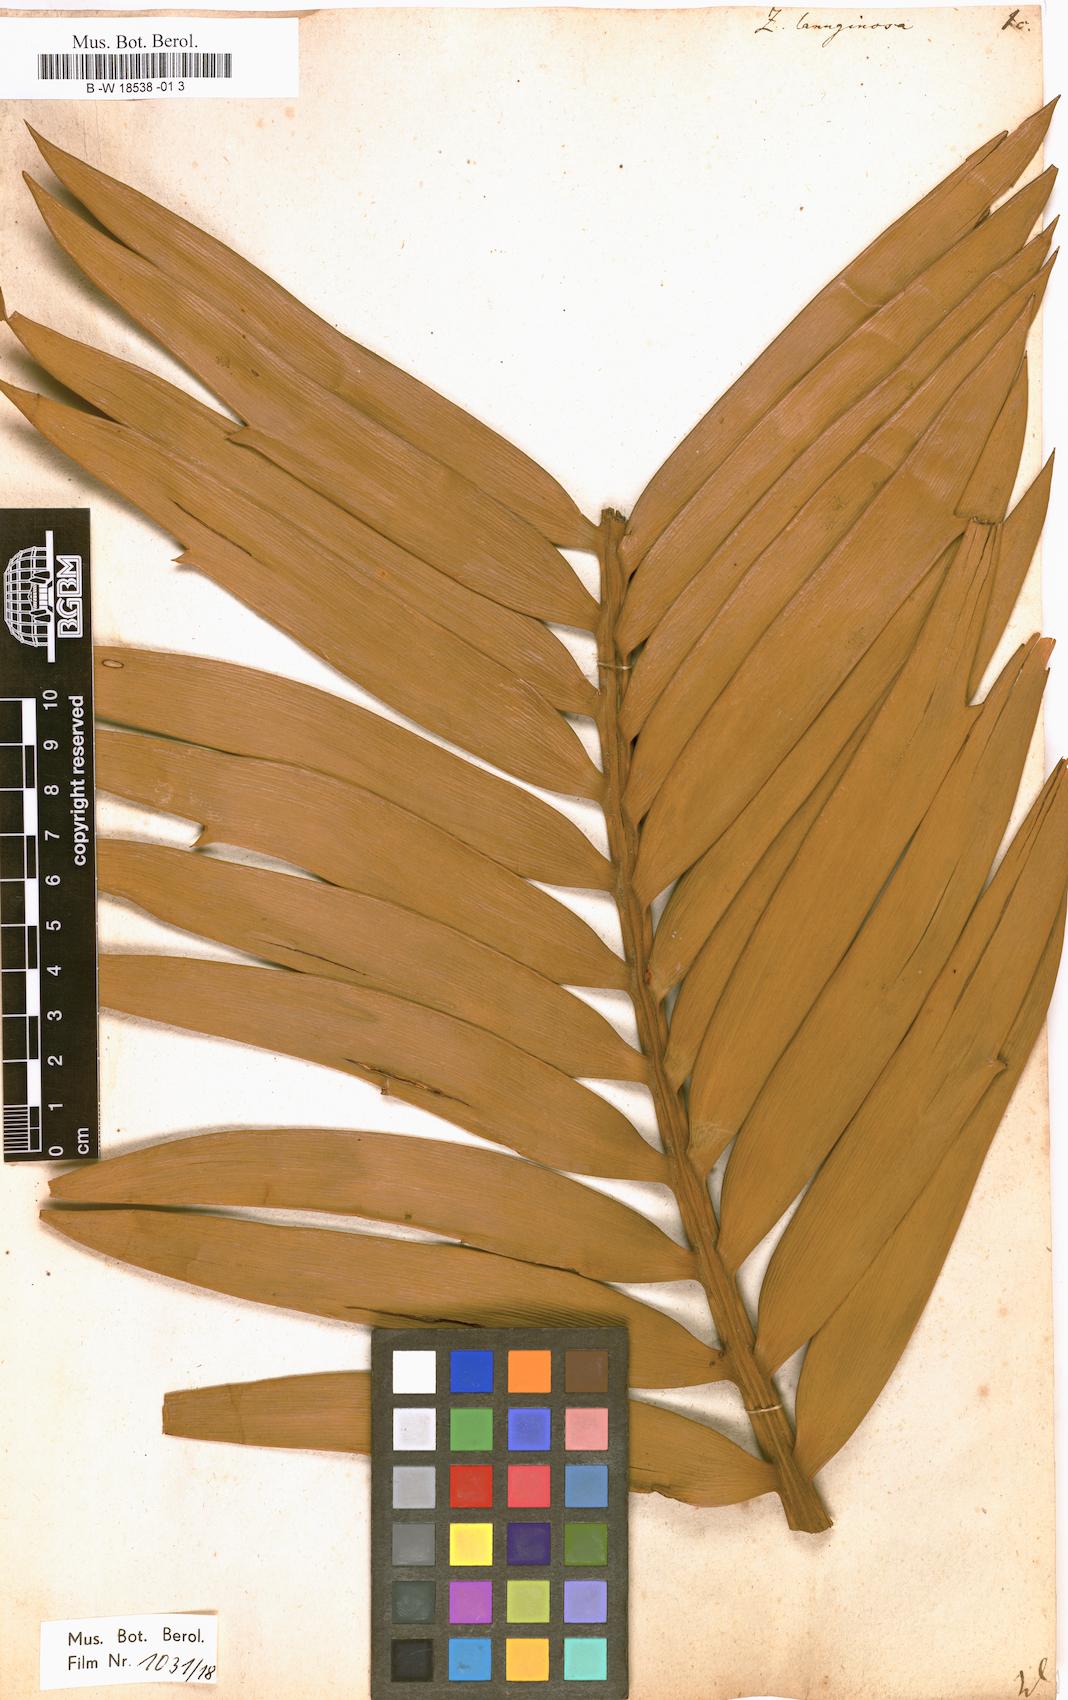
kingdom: Plantae
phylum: Tracheophyta
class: Cycadopsida
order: Cycadales
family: Zamiaceae
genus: Encephalartos
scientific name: Encephalartos longifolius
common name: Suurberg cycad
